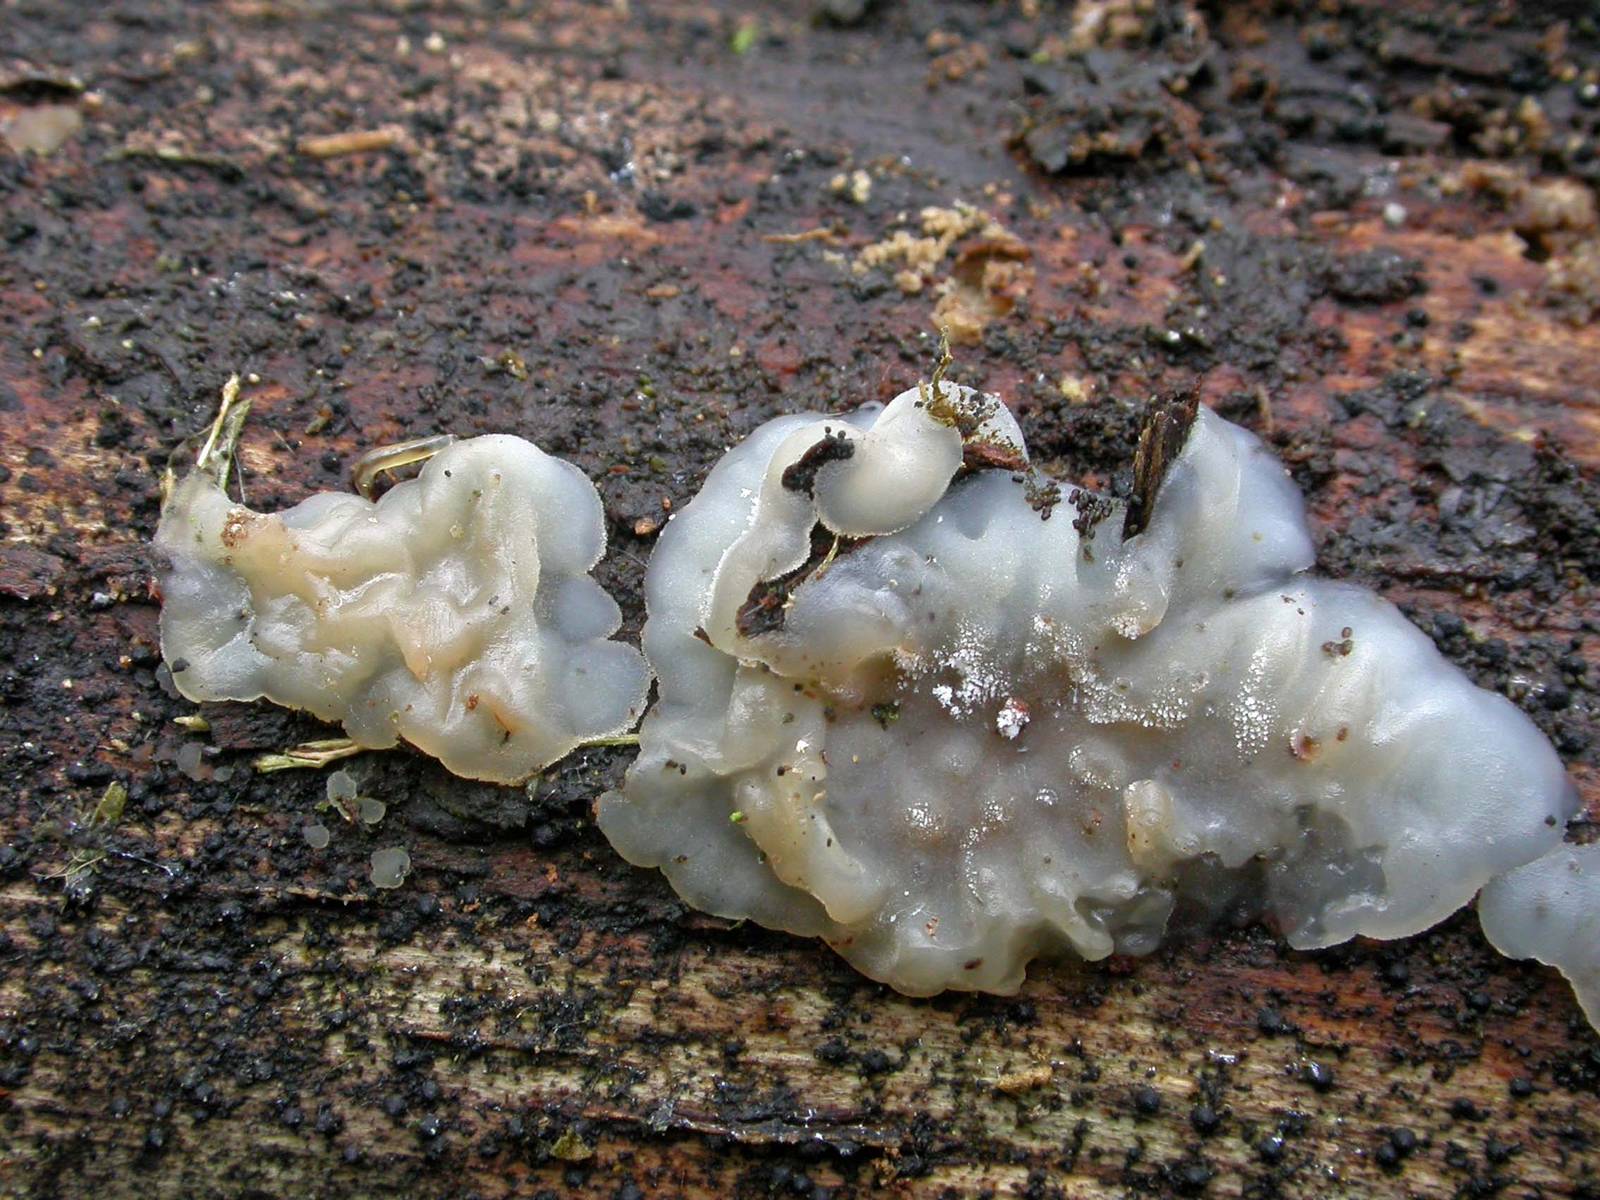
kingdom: Fungi
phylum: Basidiomycota
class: Agaricomycetes
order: Auriculariales
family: Auriculariaceae
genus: Exidia
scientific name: Exidia thuretiana
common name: hvidlig bævretop
